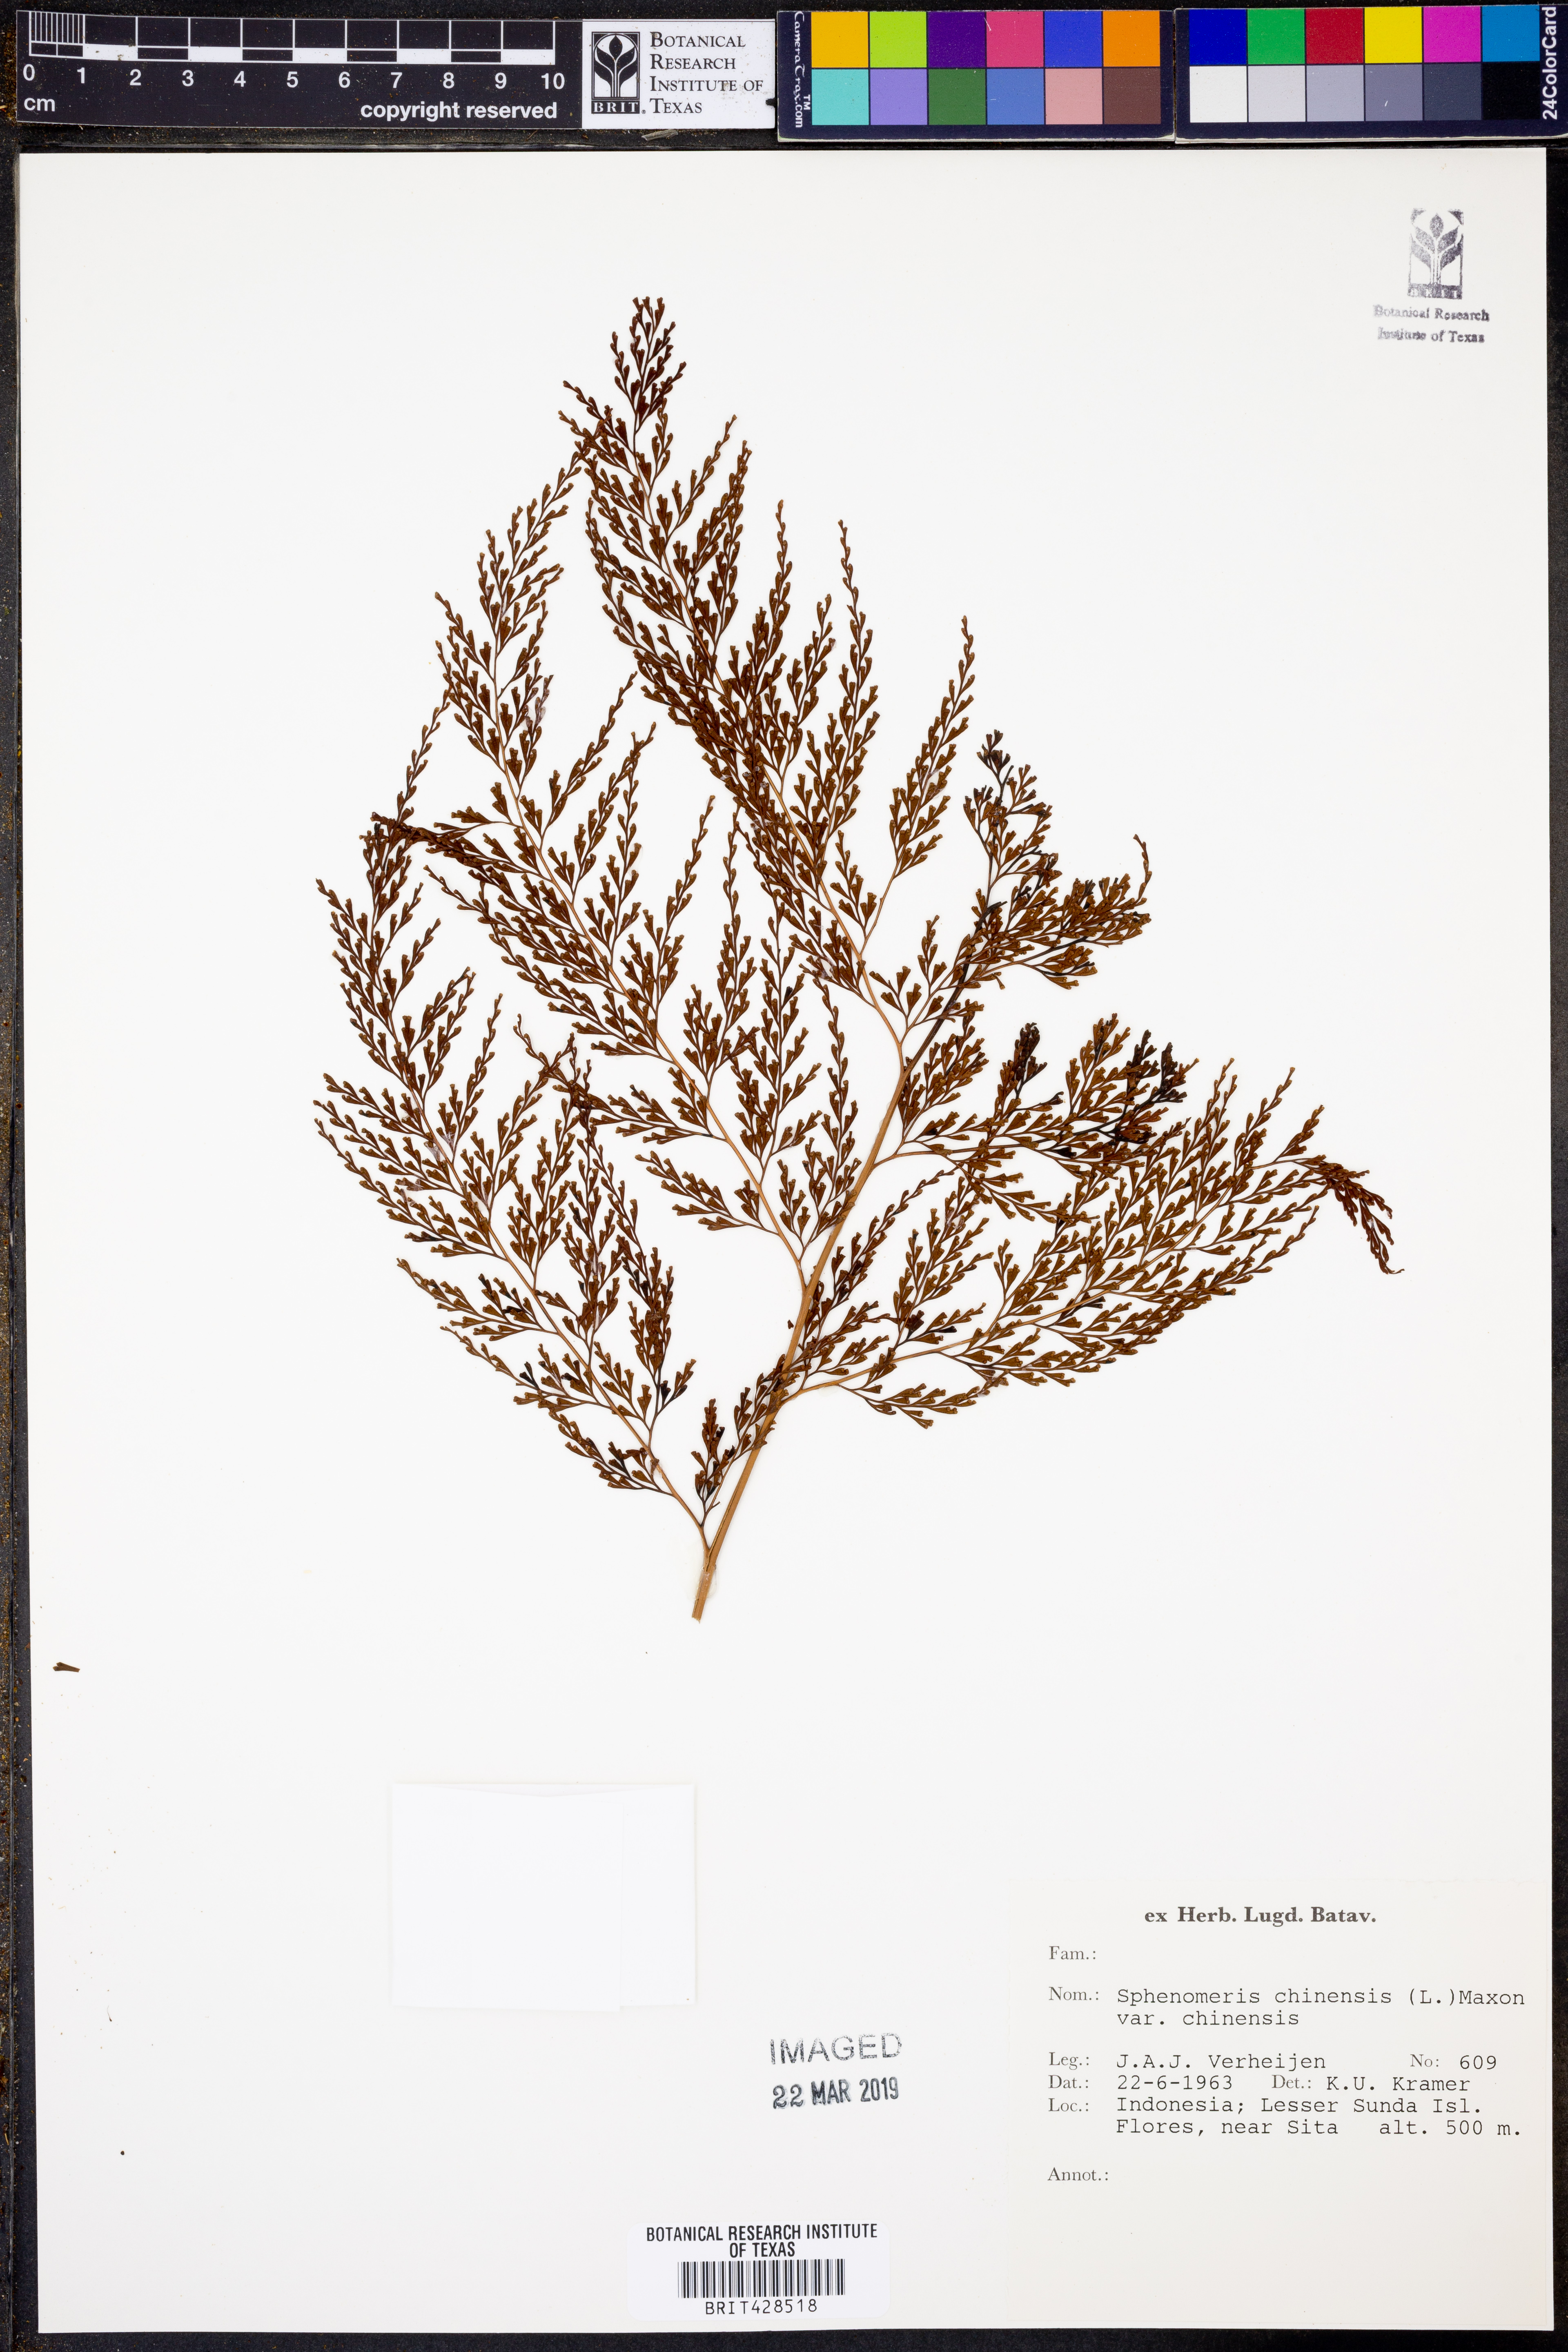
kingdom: Plantae
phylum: Tracheophyta
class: Polypodiopsida
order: Polypodiales
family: Lindsaeaceae
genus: Odontosoria
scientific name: Odontosoria chinensis
